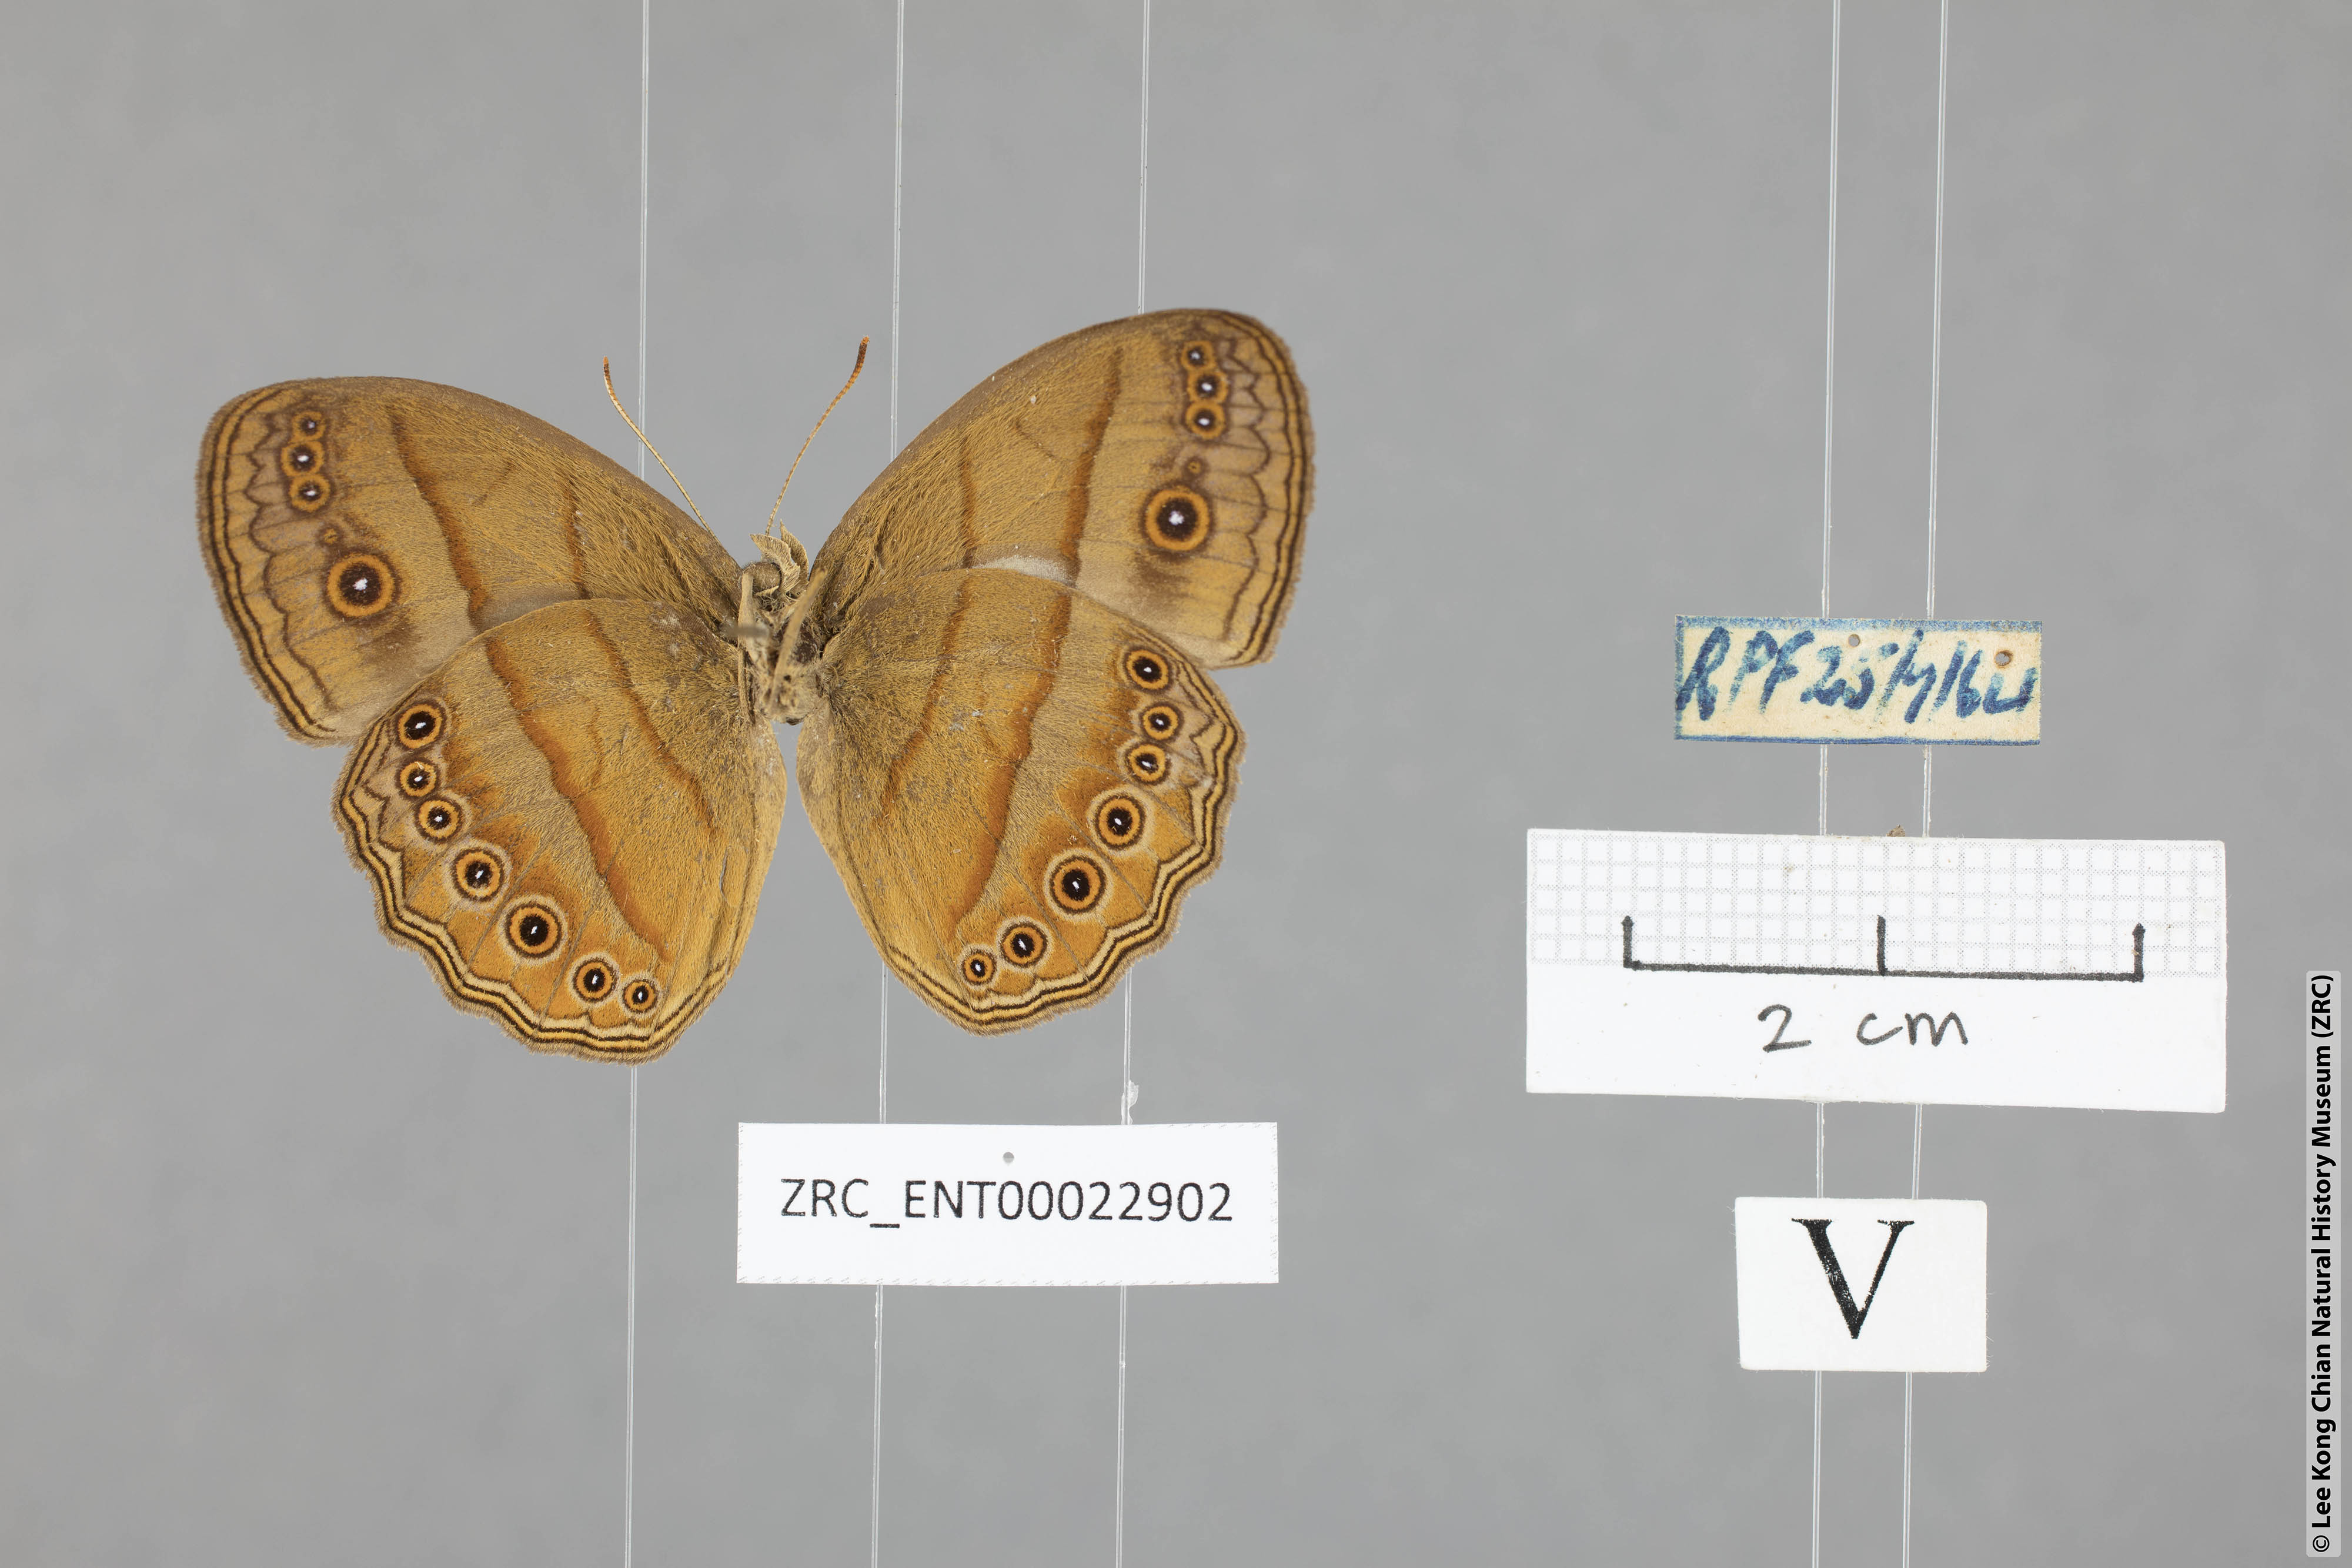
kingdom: Animalia
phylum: Arthropoda
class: Insecta
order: Lepidoptera
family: Nymphalidae
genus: Mycalesis
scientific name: Mycalesis fuscum
